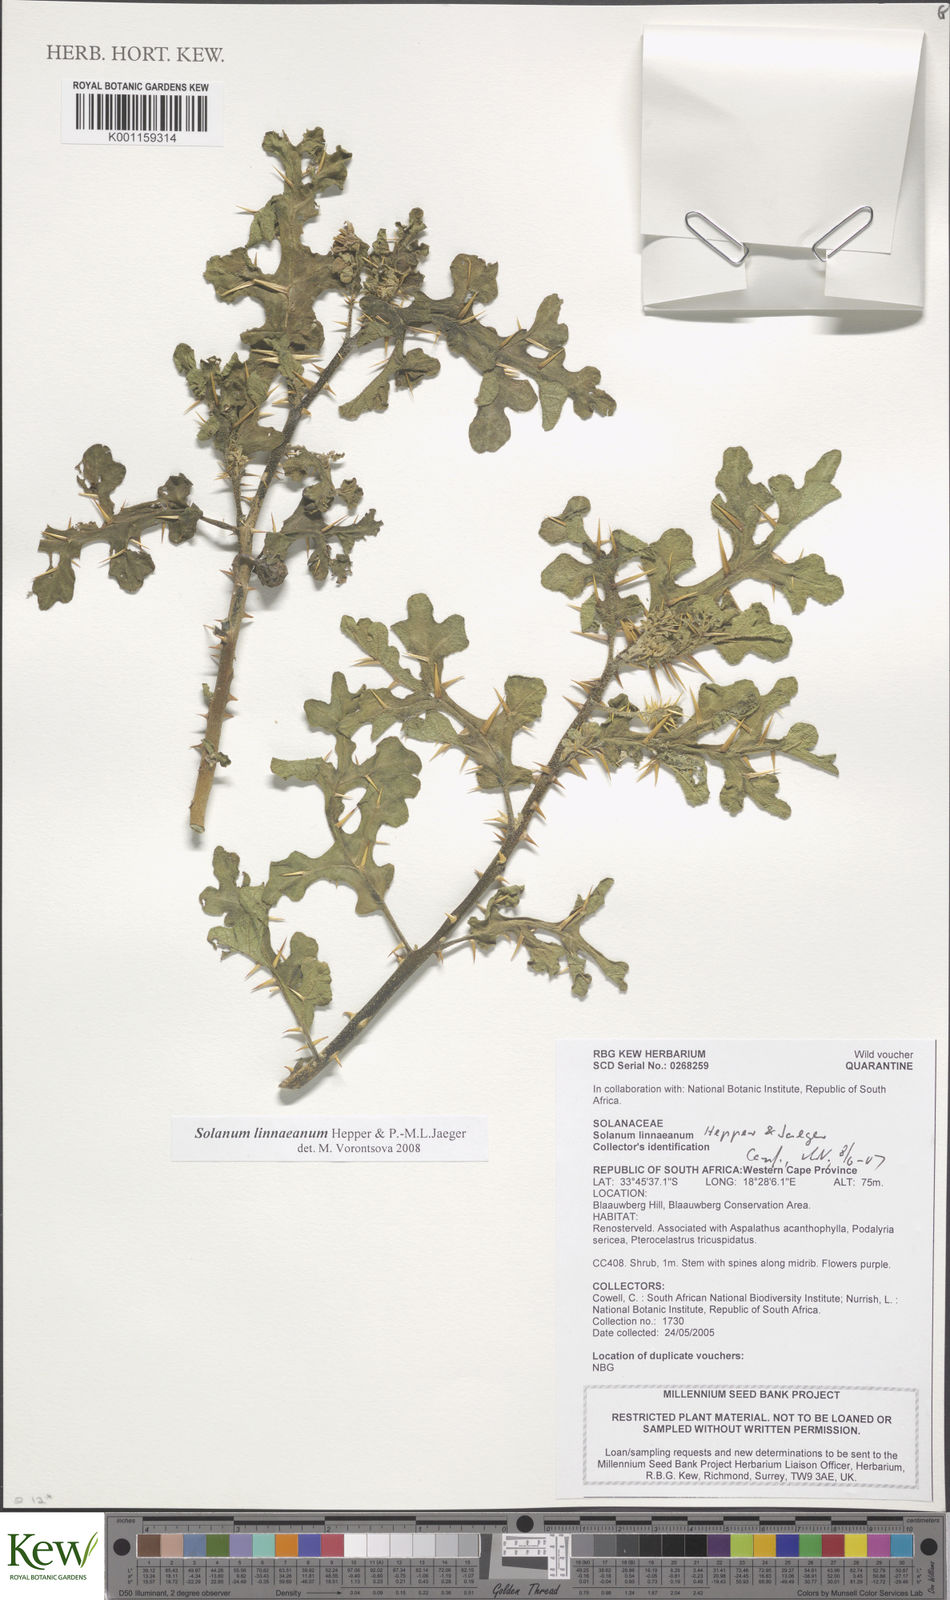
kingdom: Plantae
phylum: Tracheophyta
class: Magnoliopsida
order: Solanales
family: Solanaceae
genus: Solanum
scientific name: Solanum linnaeanum
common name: Nightshade
